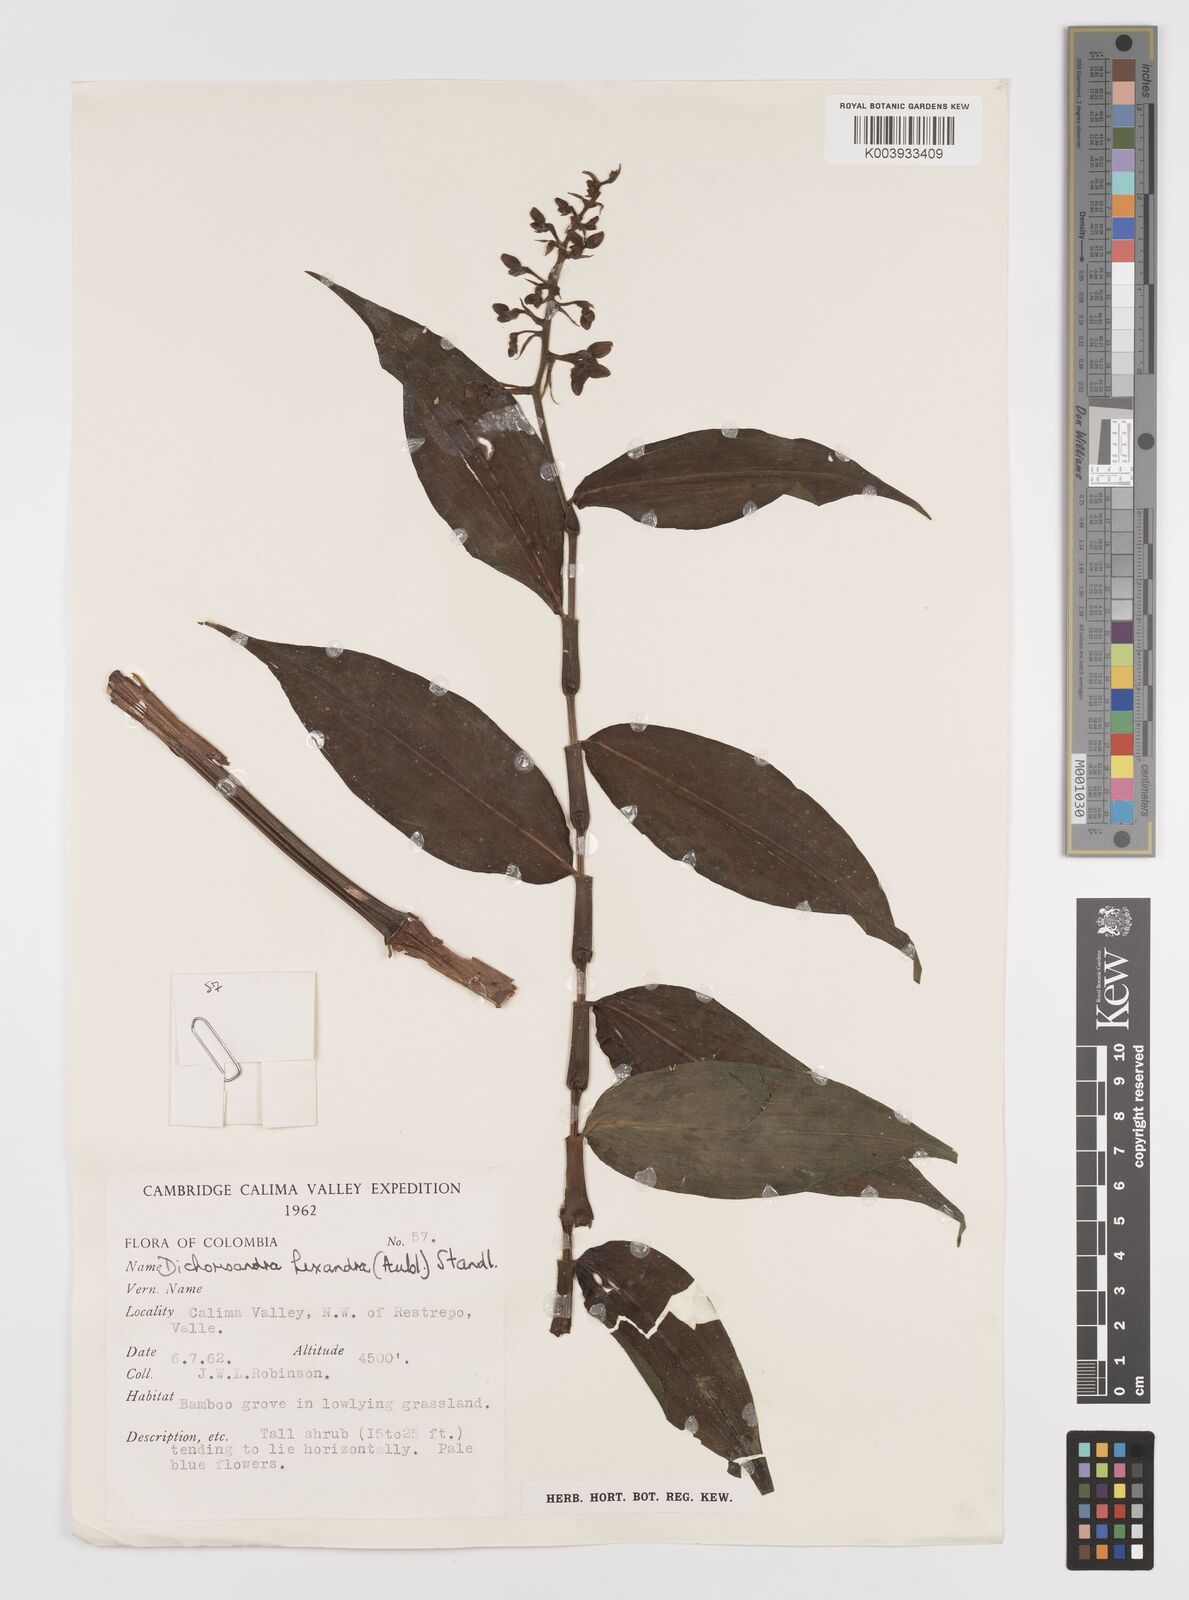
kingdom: Plantae
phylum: Tracheophyta
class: Liliopsida
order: Commelinales
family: Commelinaceae
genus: Dichorisandra
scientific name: Dichorisandra hexandra
